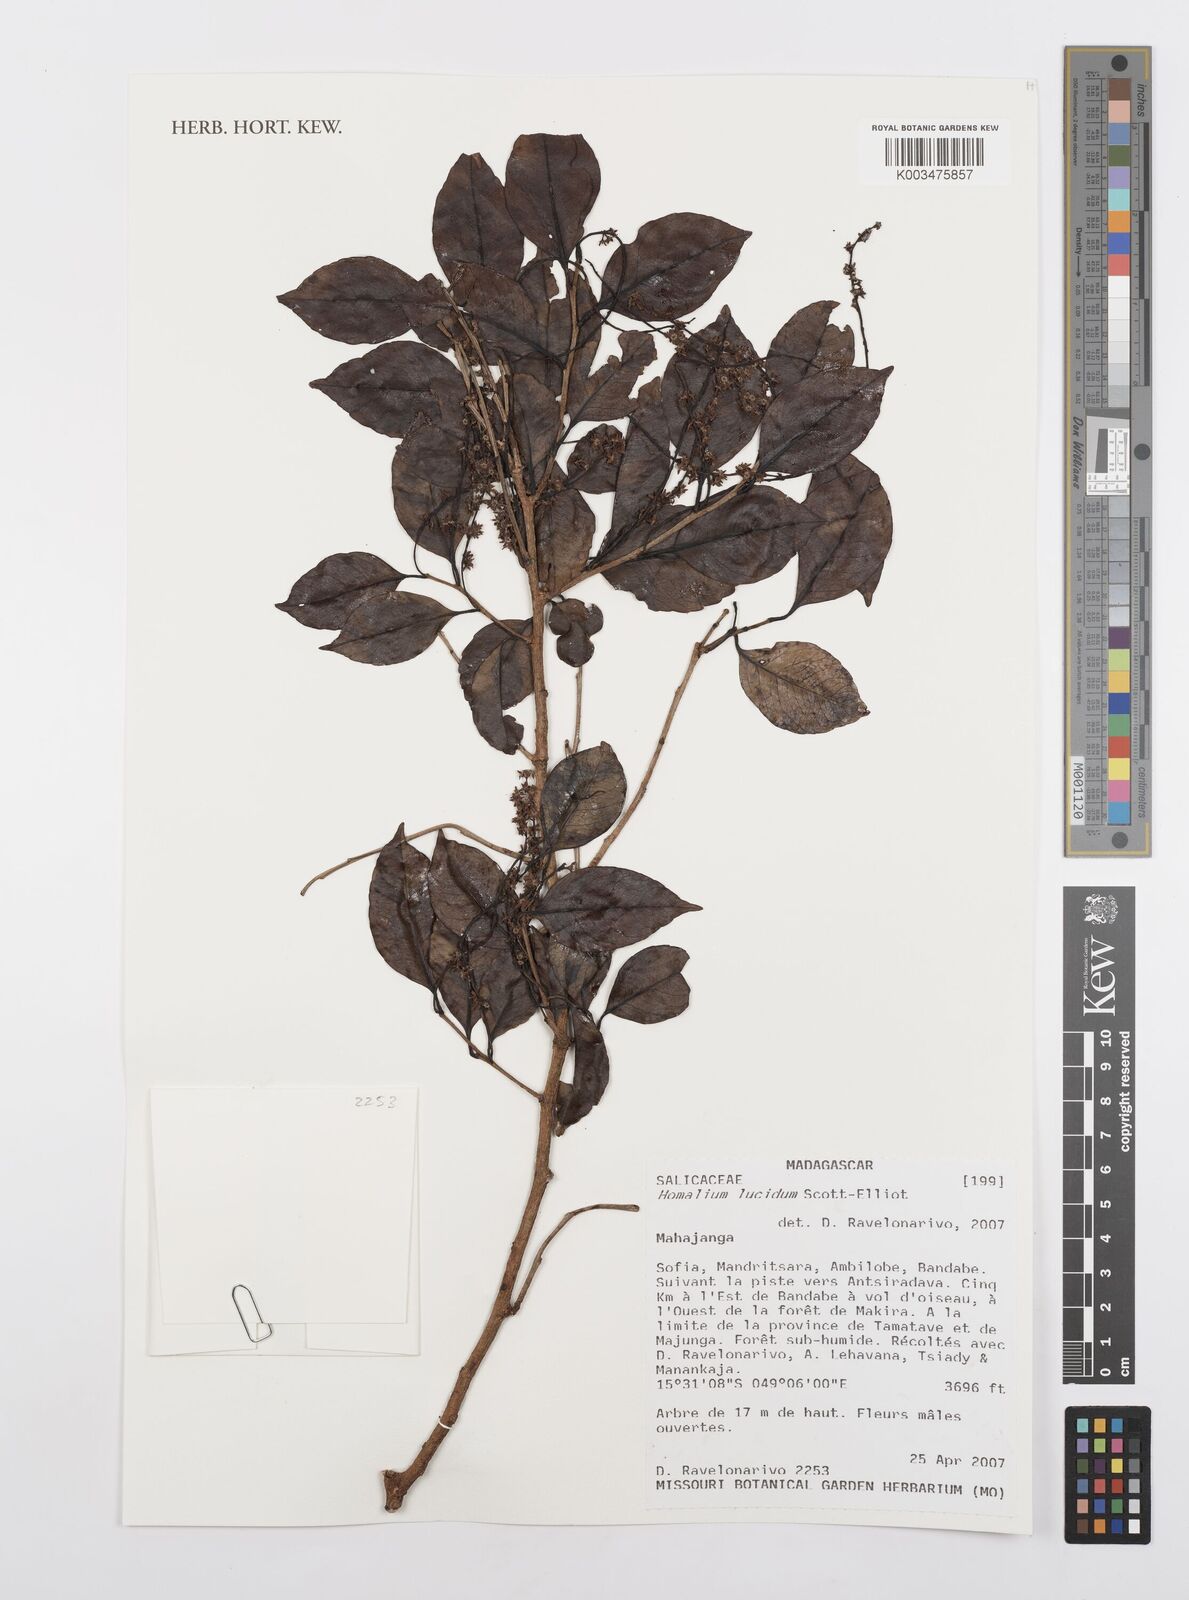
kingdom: Plantae
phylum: Tracheophyta
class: Magnoliopsida
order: Malpighiales
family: Salicaceae
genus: Homalium
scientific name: Homalium lucidum
